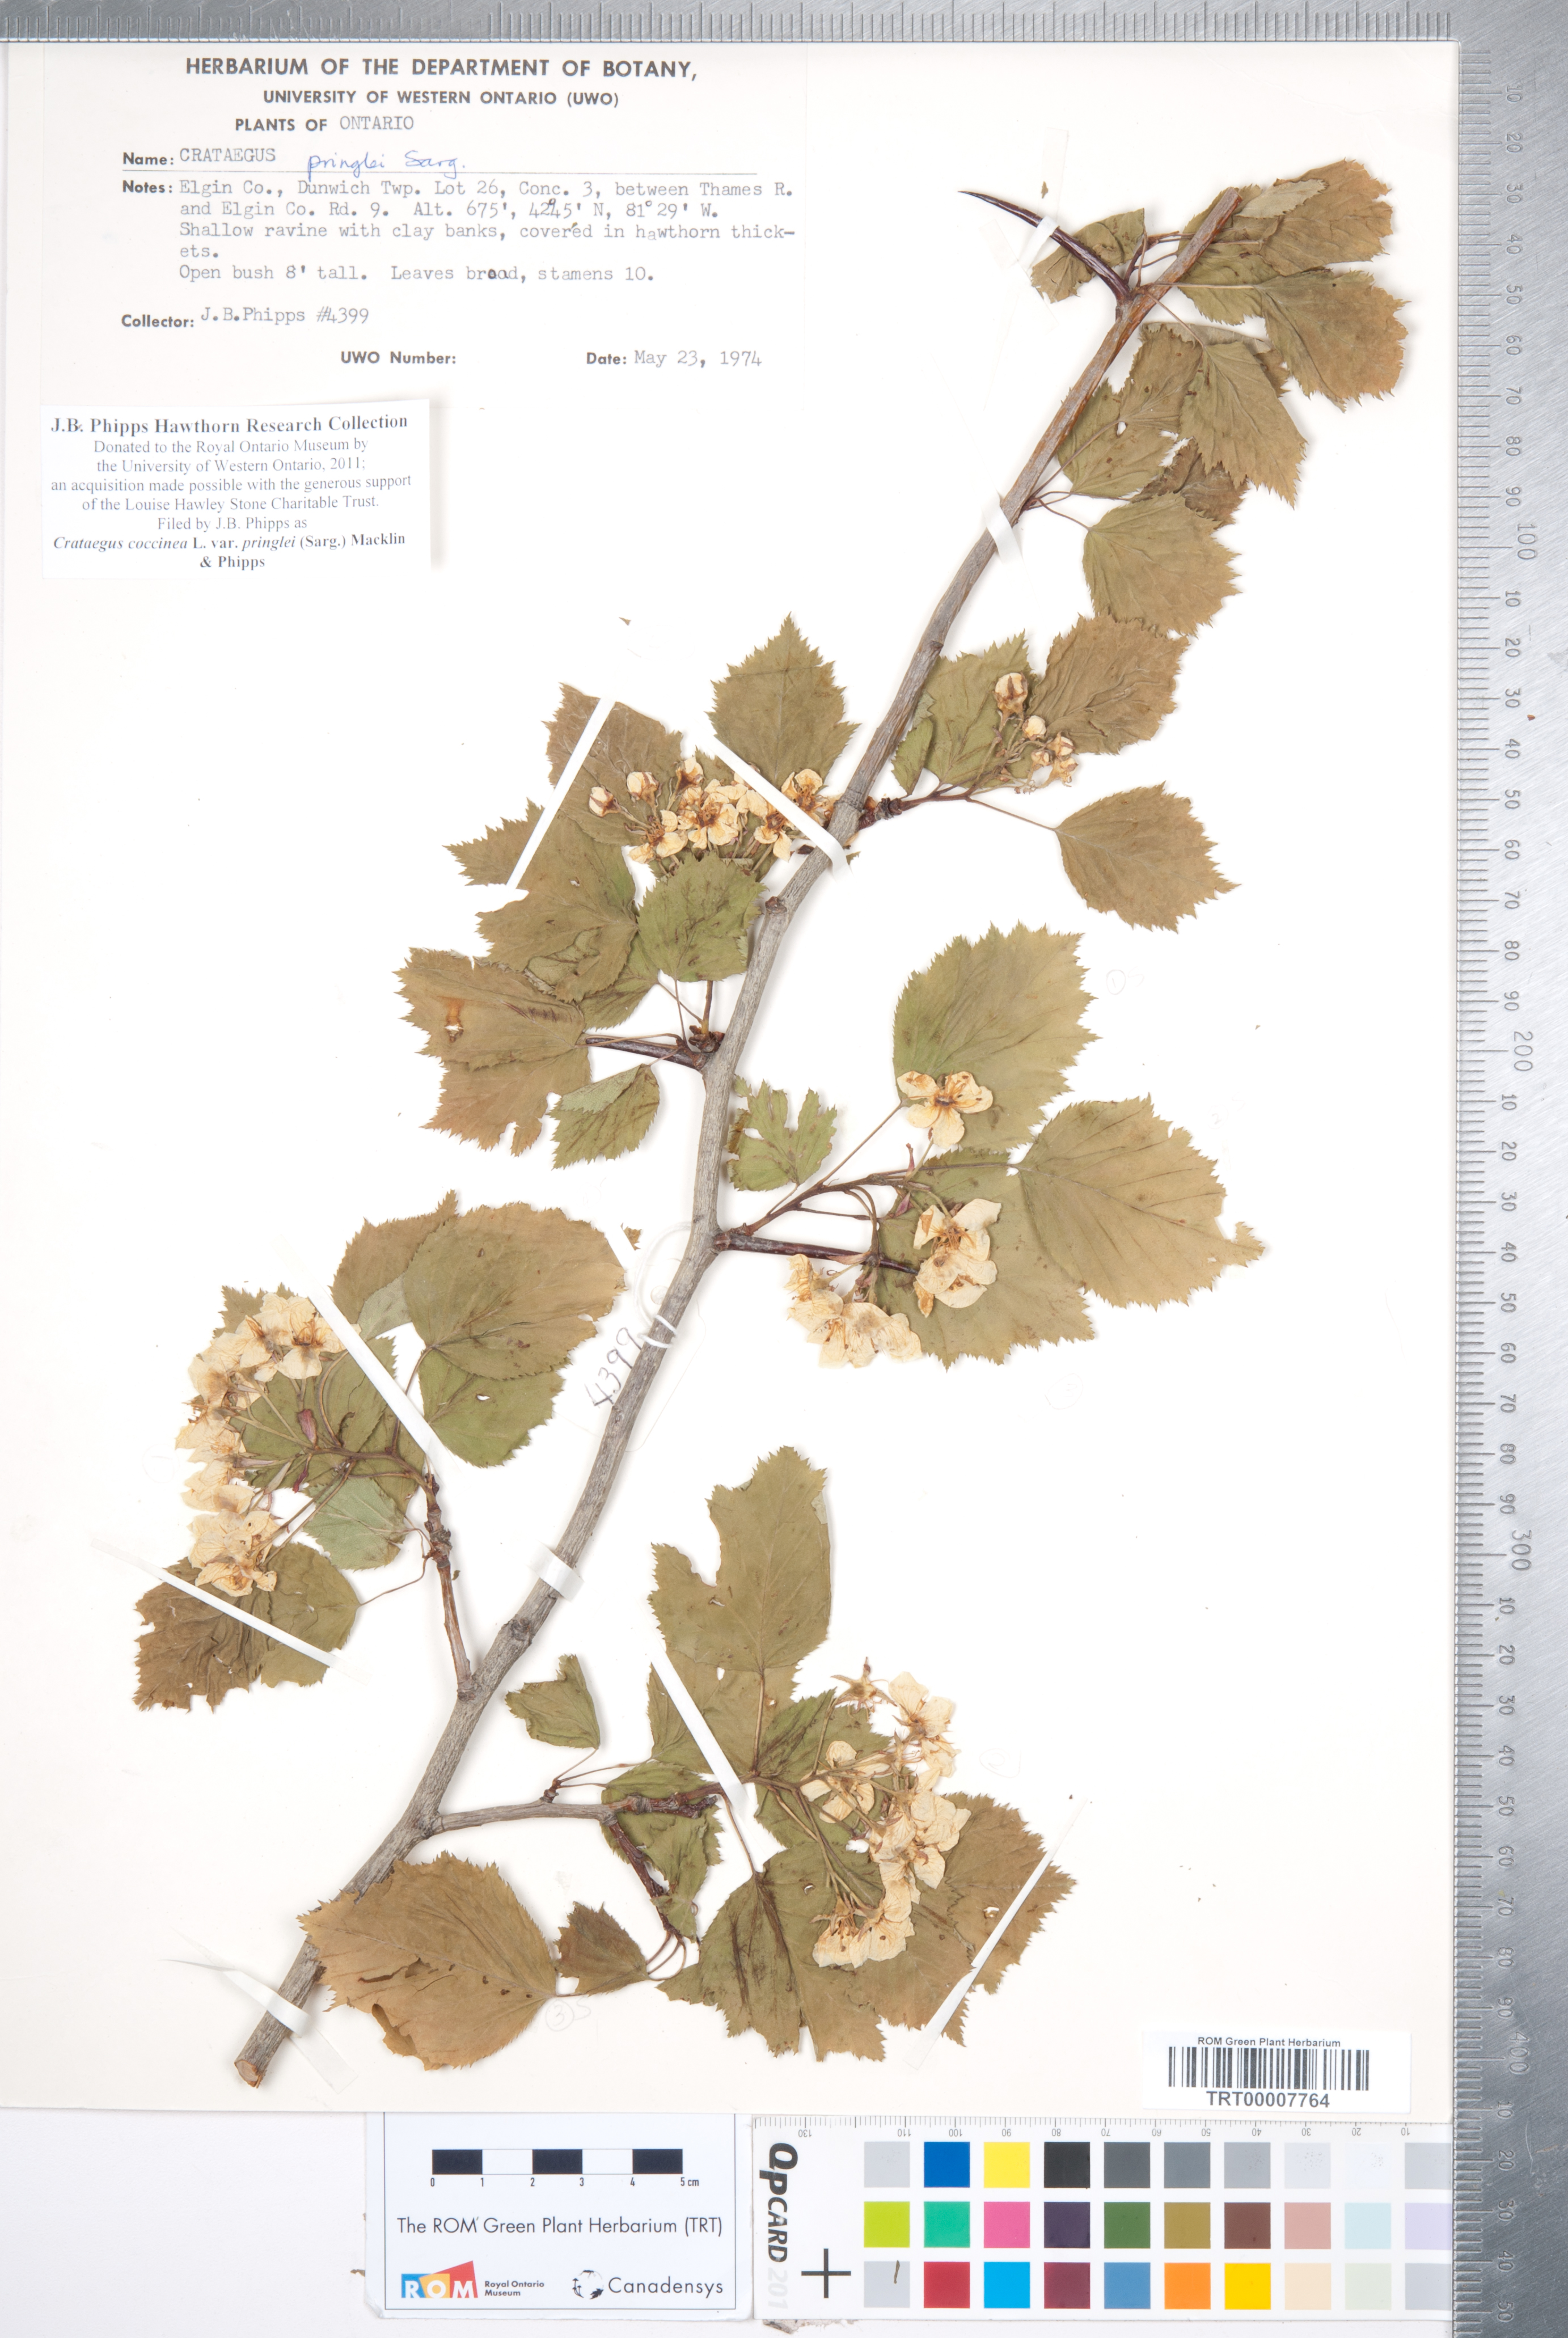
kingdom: Plantae
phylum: Tracheophyta
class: Magnoliopsida
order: Rosales
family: Rosaceae
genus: Crataegus
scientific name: Crataegus coccinea
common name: Scarlet hawthorn
